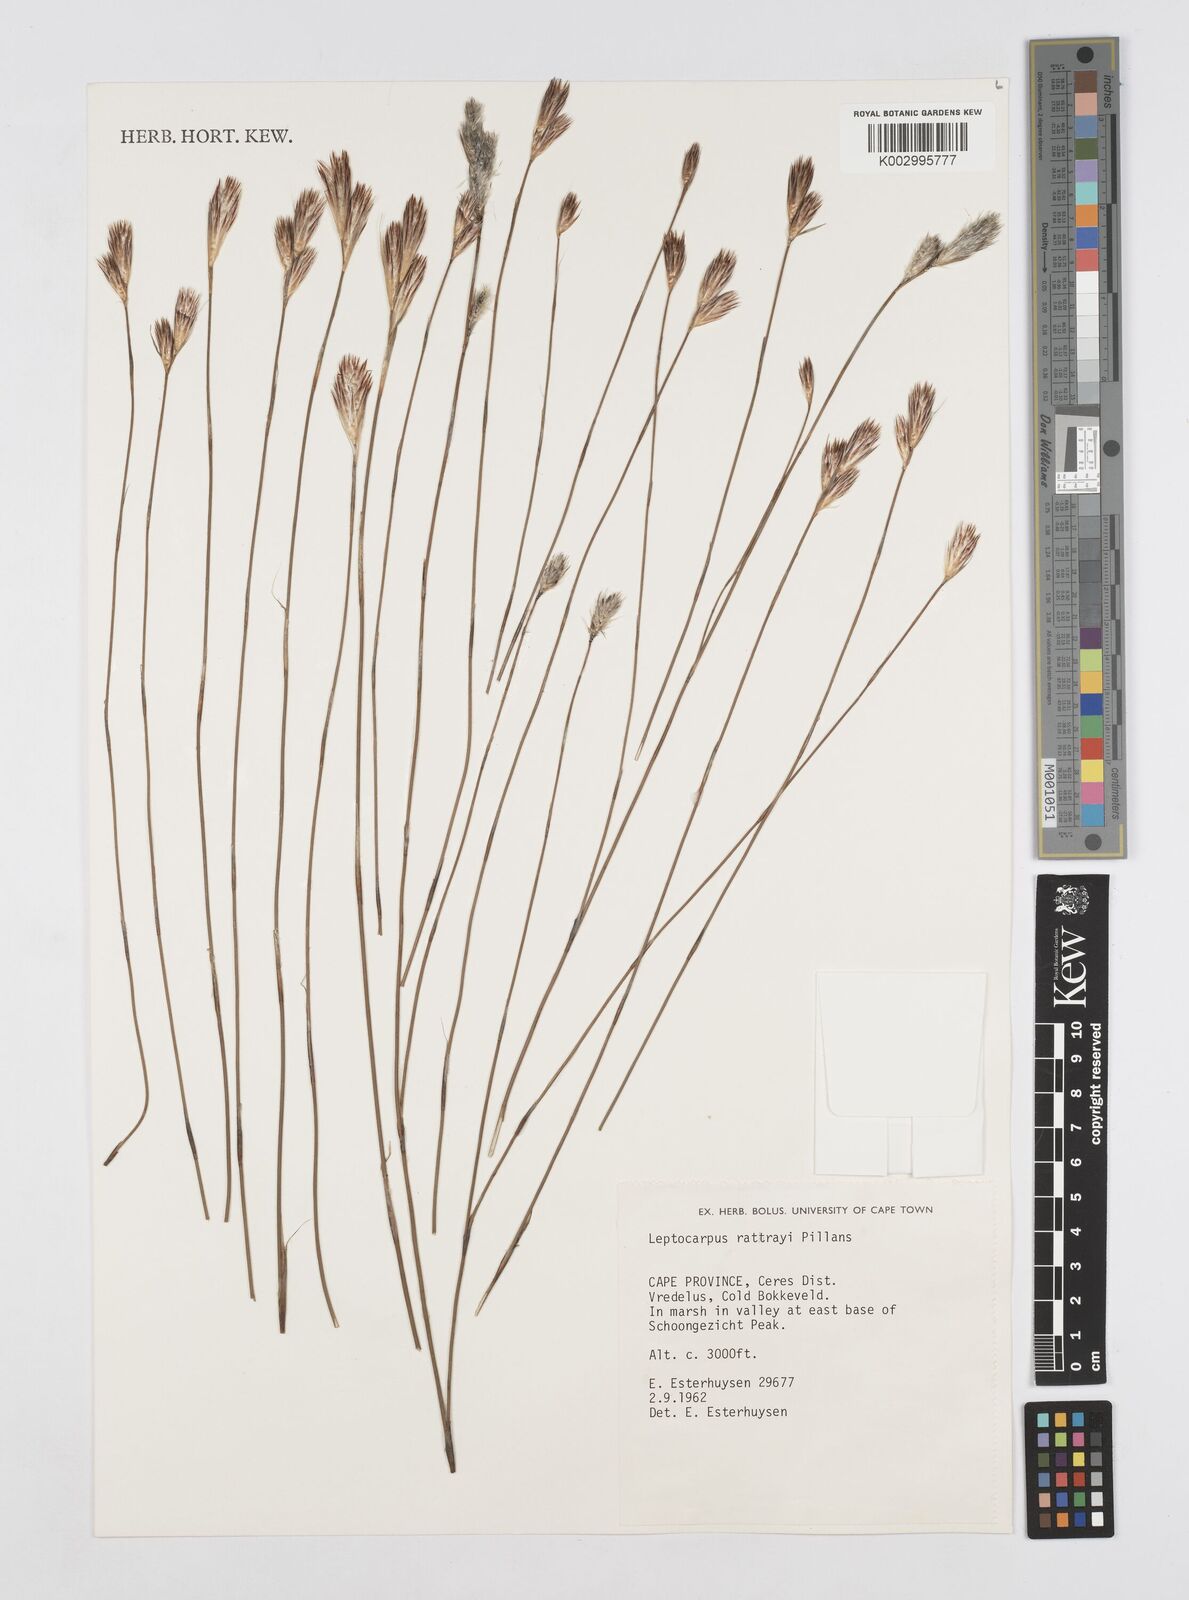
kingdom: Plantae
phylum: Tracheophyta
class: Liliopsida
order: Poales
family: Restionaceae
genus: Hydrophilus
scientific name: Hydrophilus rattrayi
